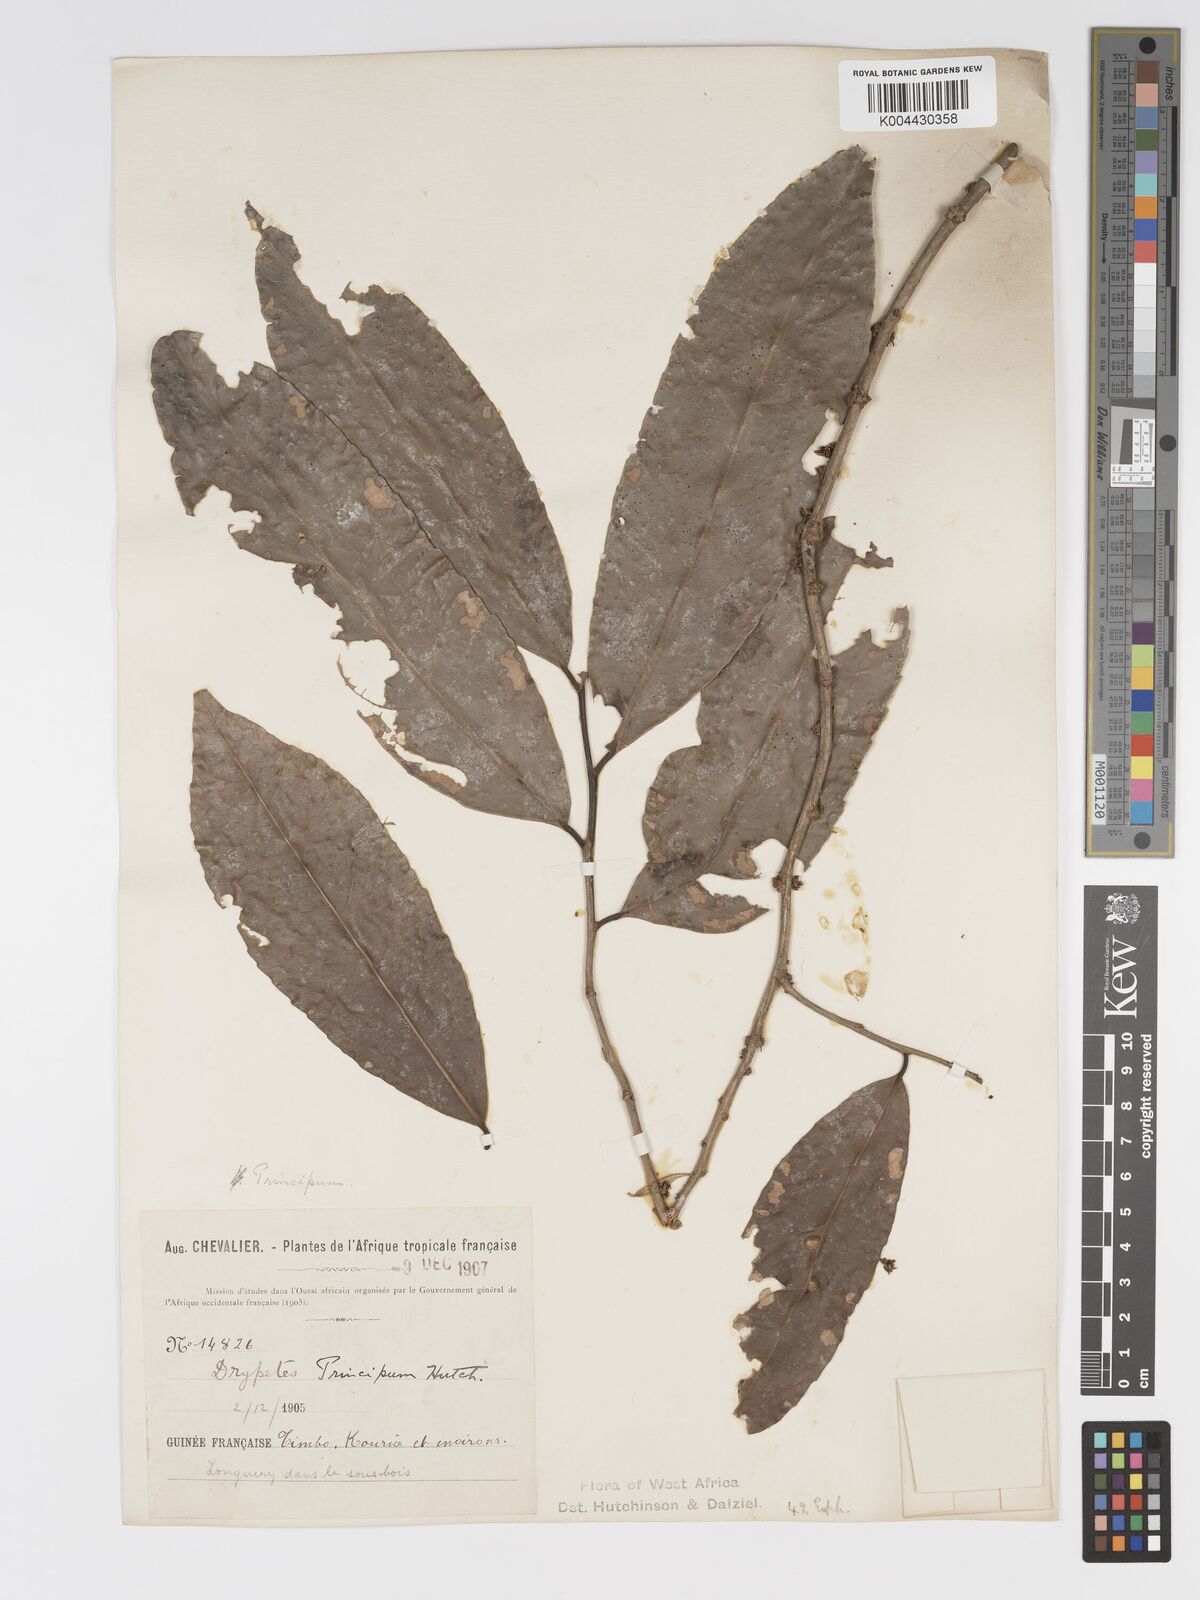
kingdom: Plantae
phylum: Tracheophyta
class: Magnoliopsida
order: Malpighiales
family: Putranjivaceae
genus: Drypetes
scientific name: Drypetes principum
